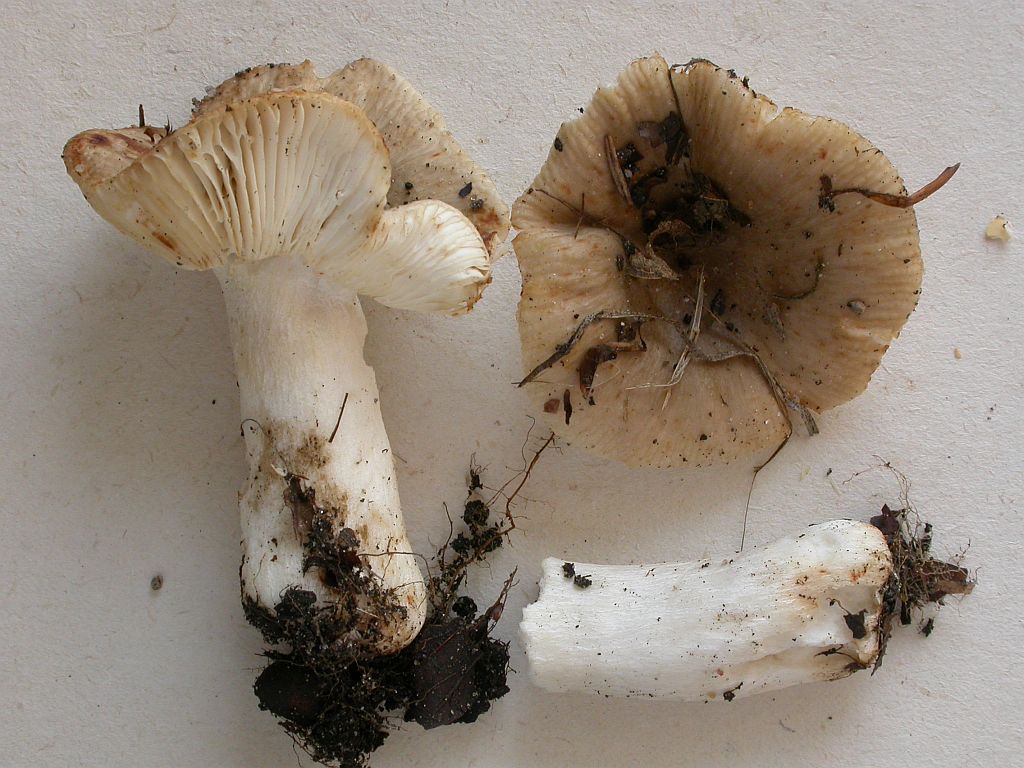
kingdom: Fungi
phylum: Basidiomycota
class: Agaricomycetes
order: Russulales
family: Russulaceae
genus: Russula
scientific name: Russula amoenolens
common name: skarp kam-skørhat
